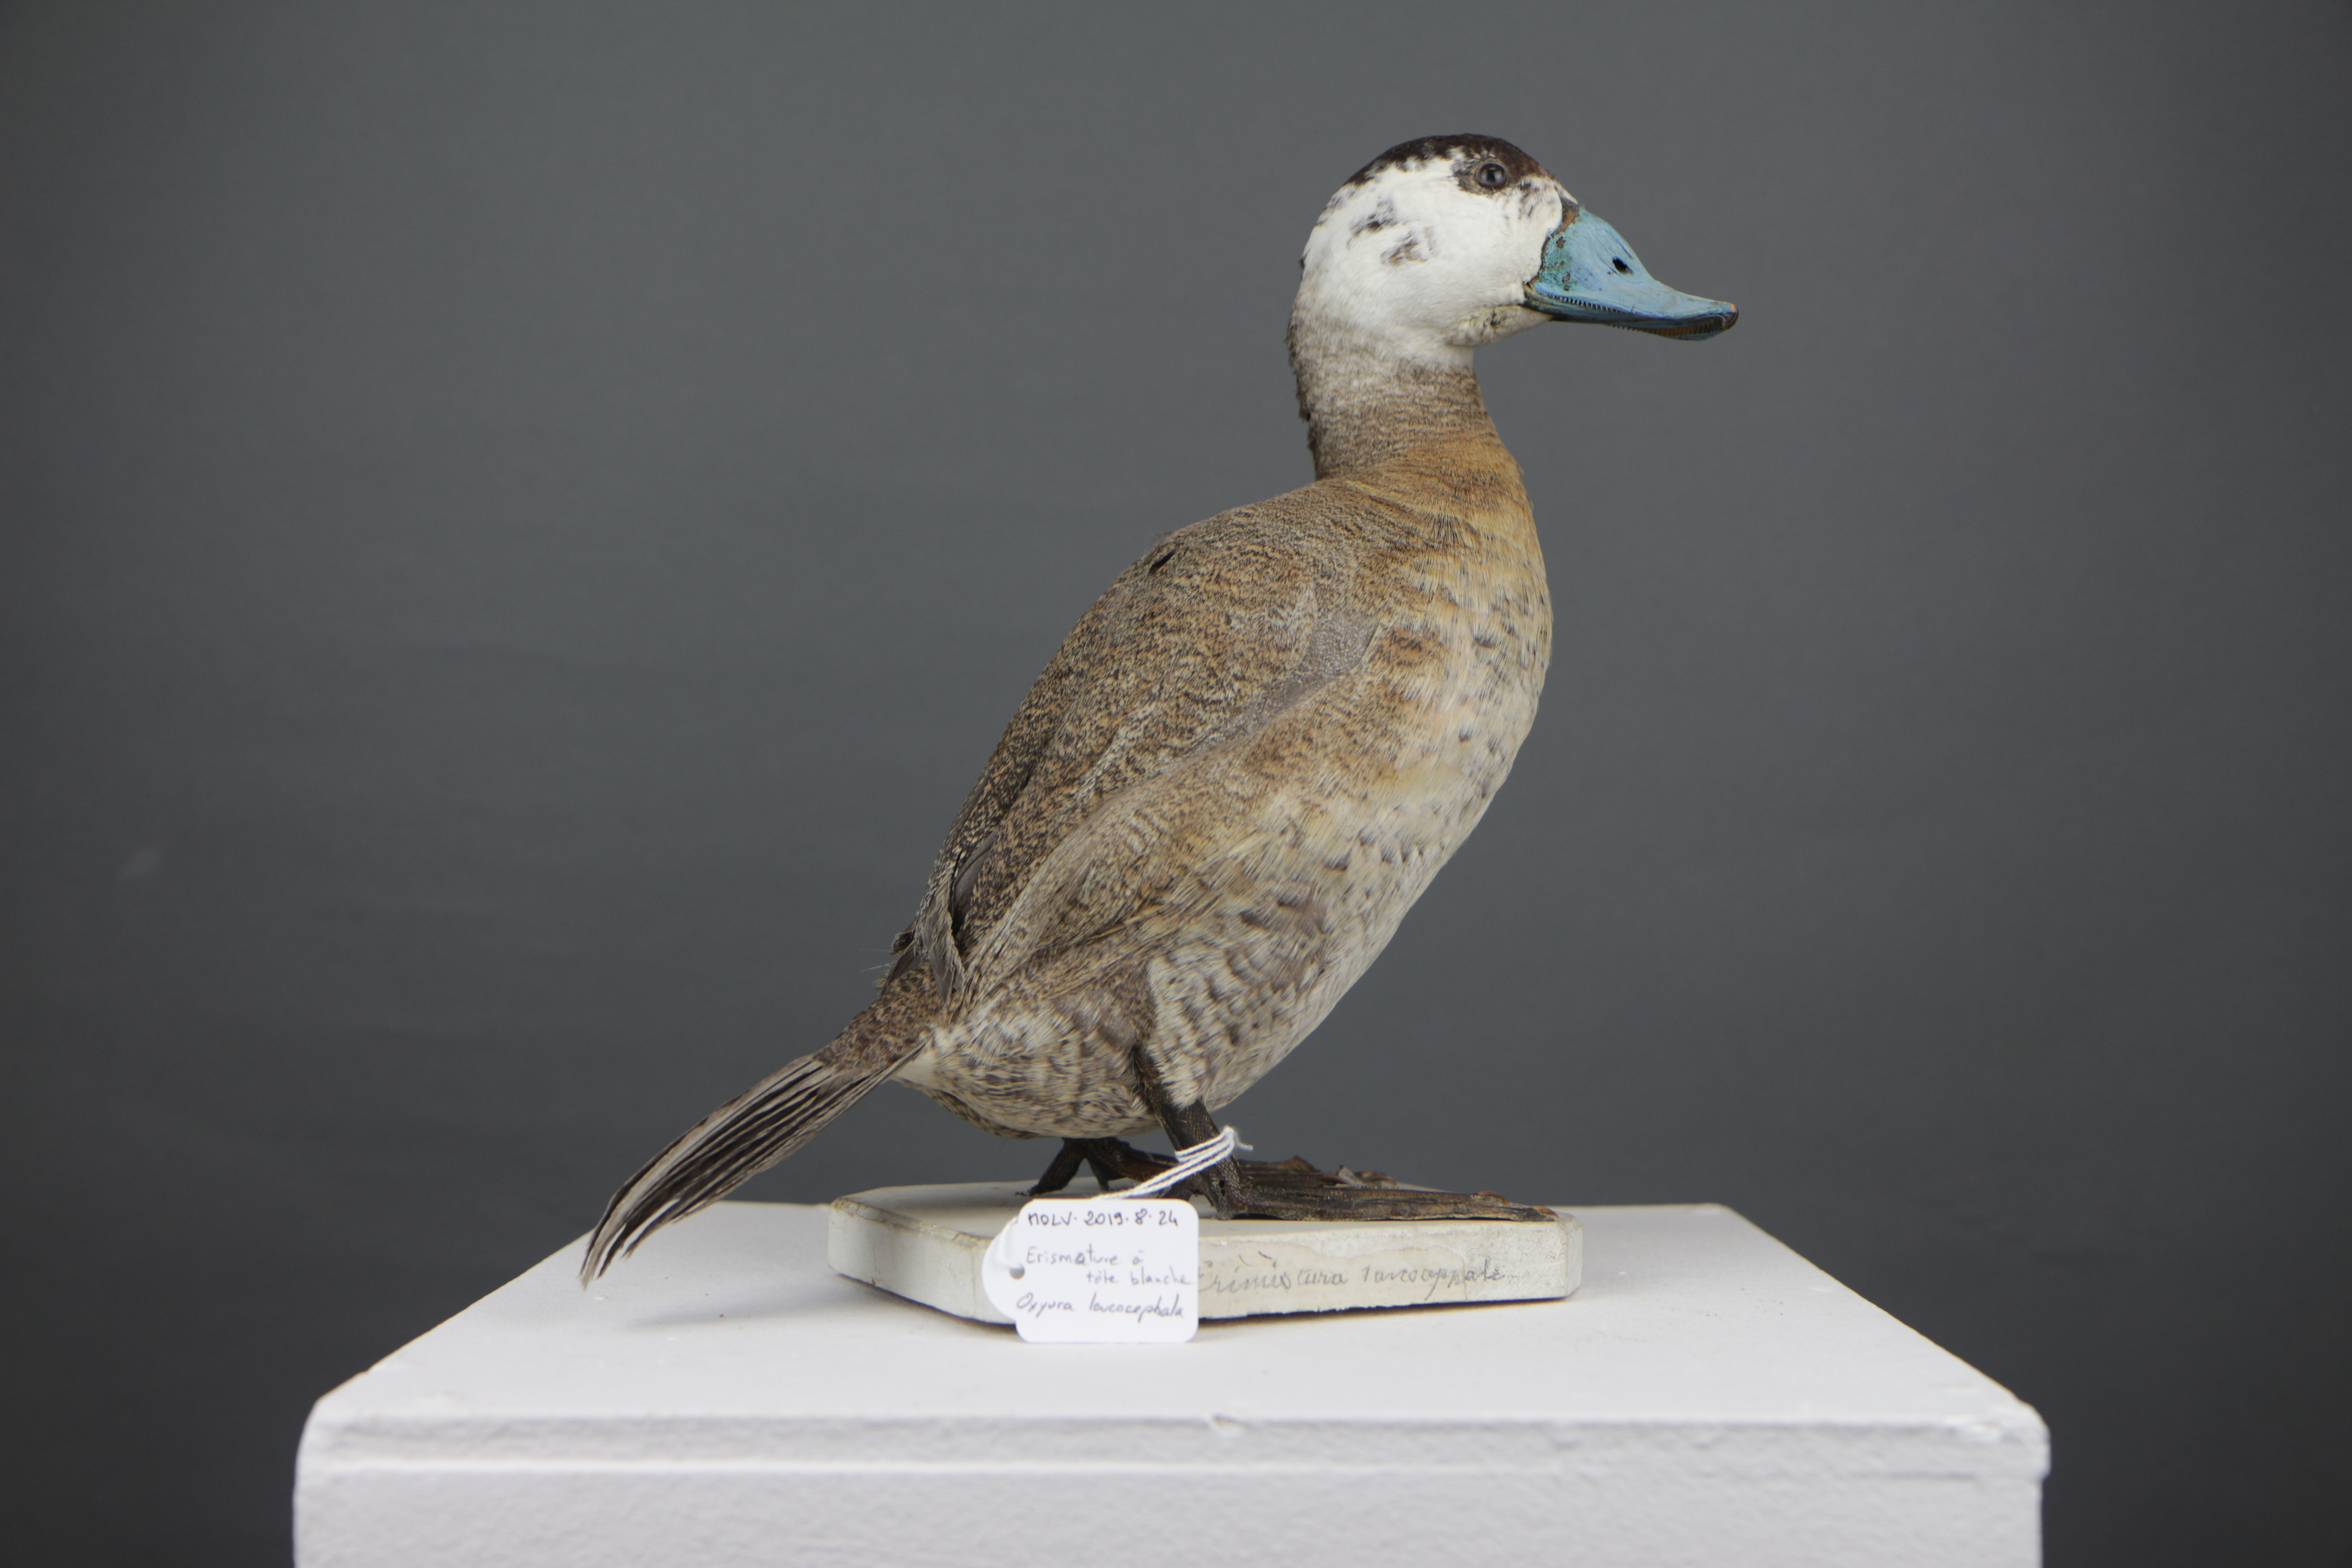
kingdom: Animalia
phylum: Chordata
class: Aves
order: Anseriformes
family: Anatidae
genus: Oxyura
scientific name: Oxyura leucocephala
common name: White-headed duck
